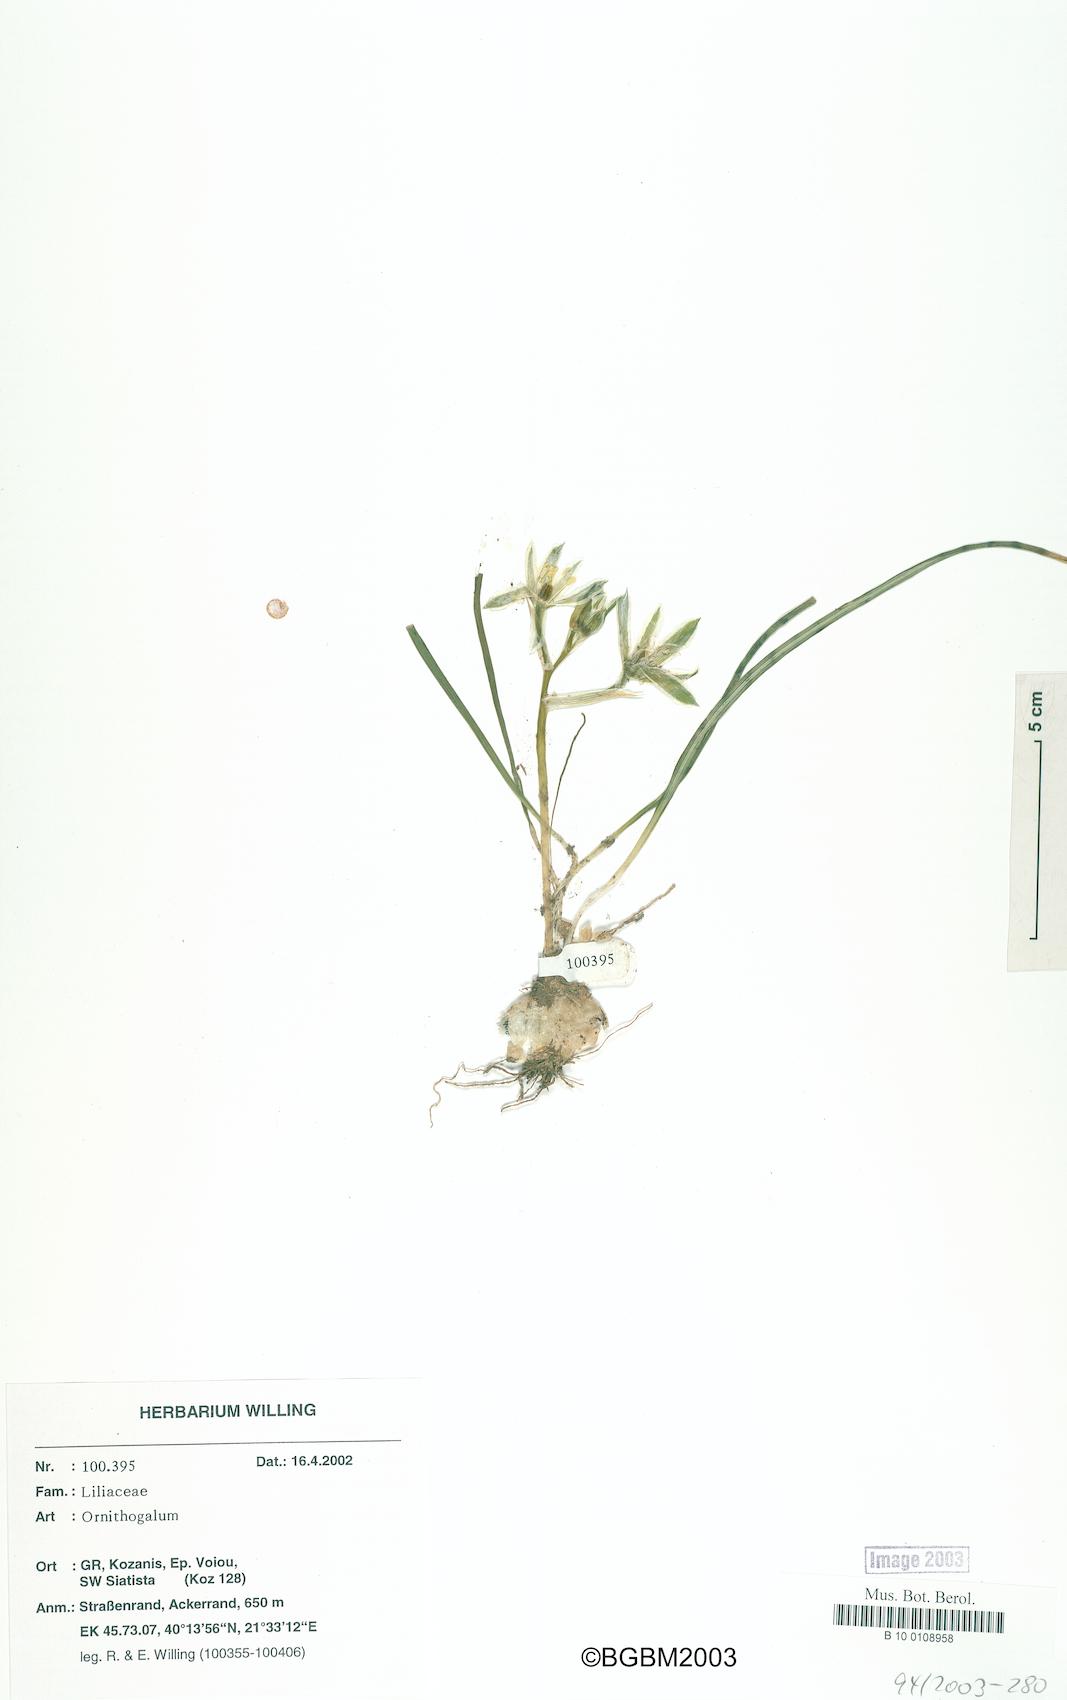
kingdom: Plantae
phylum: Tracheophyta
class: Liliopsida
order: Asparagales
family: Asparagaceae
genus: Ornithogalum
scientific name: Ornithogalum
